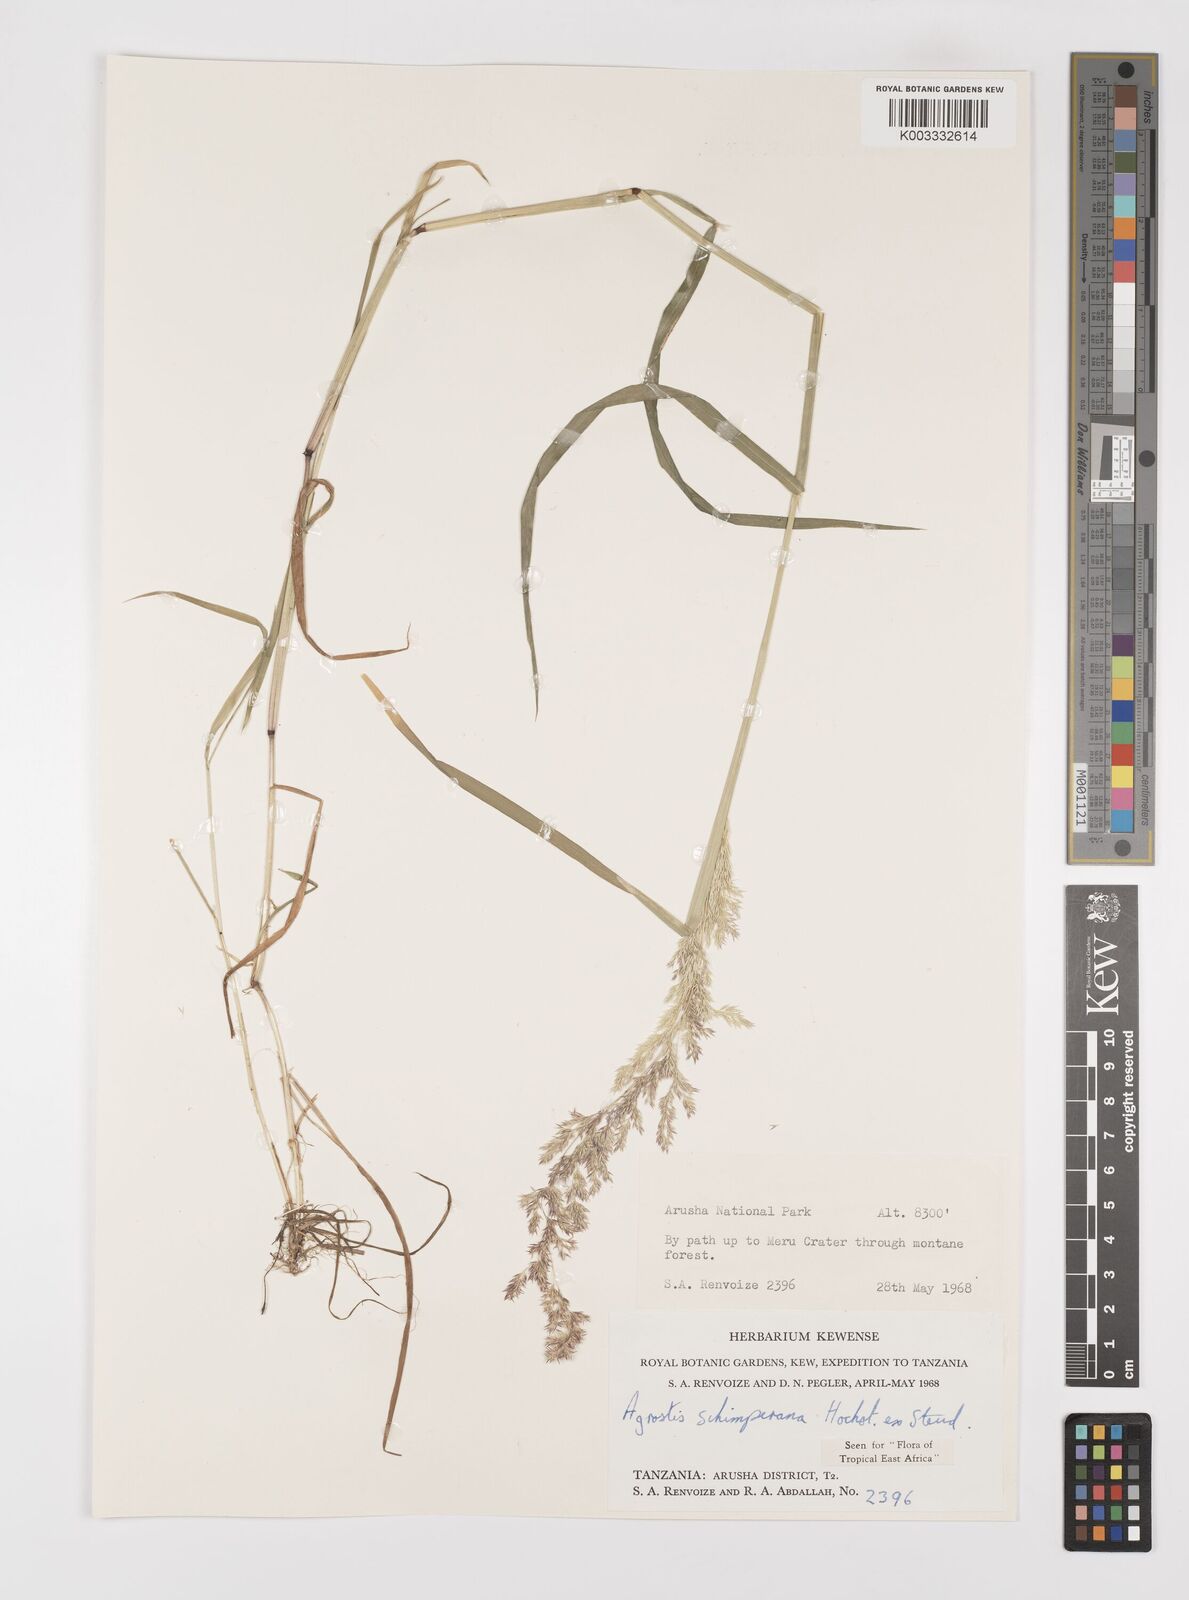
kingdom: Plantae
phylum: Tracheophyta
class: Liliopsida
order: Poales
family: Poaceae
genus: Polypogon
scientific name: Polypogon schimperianus
